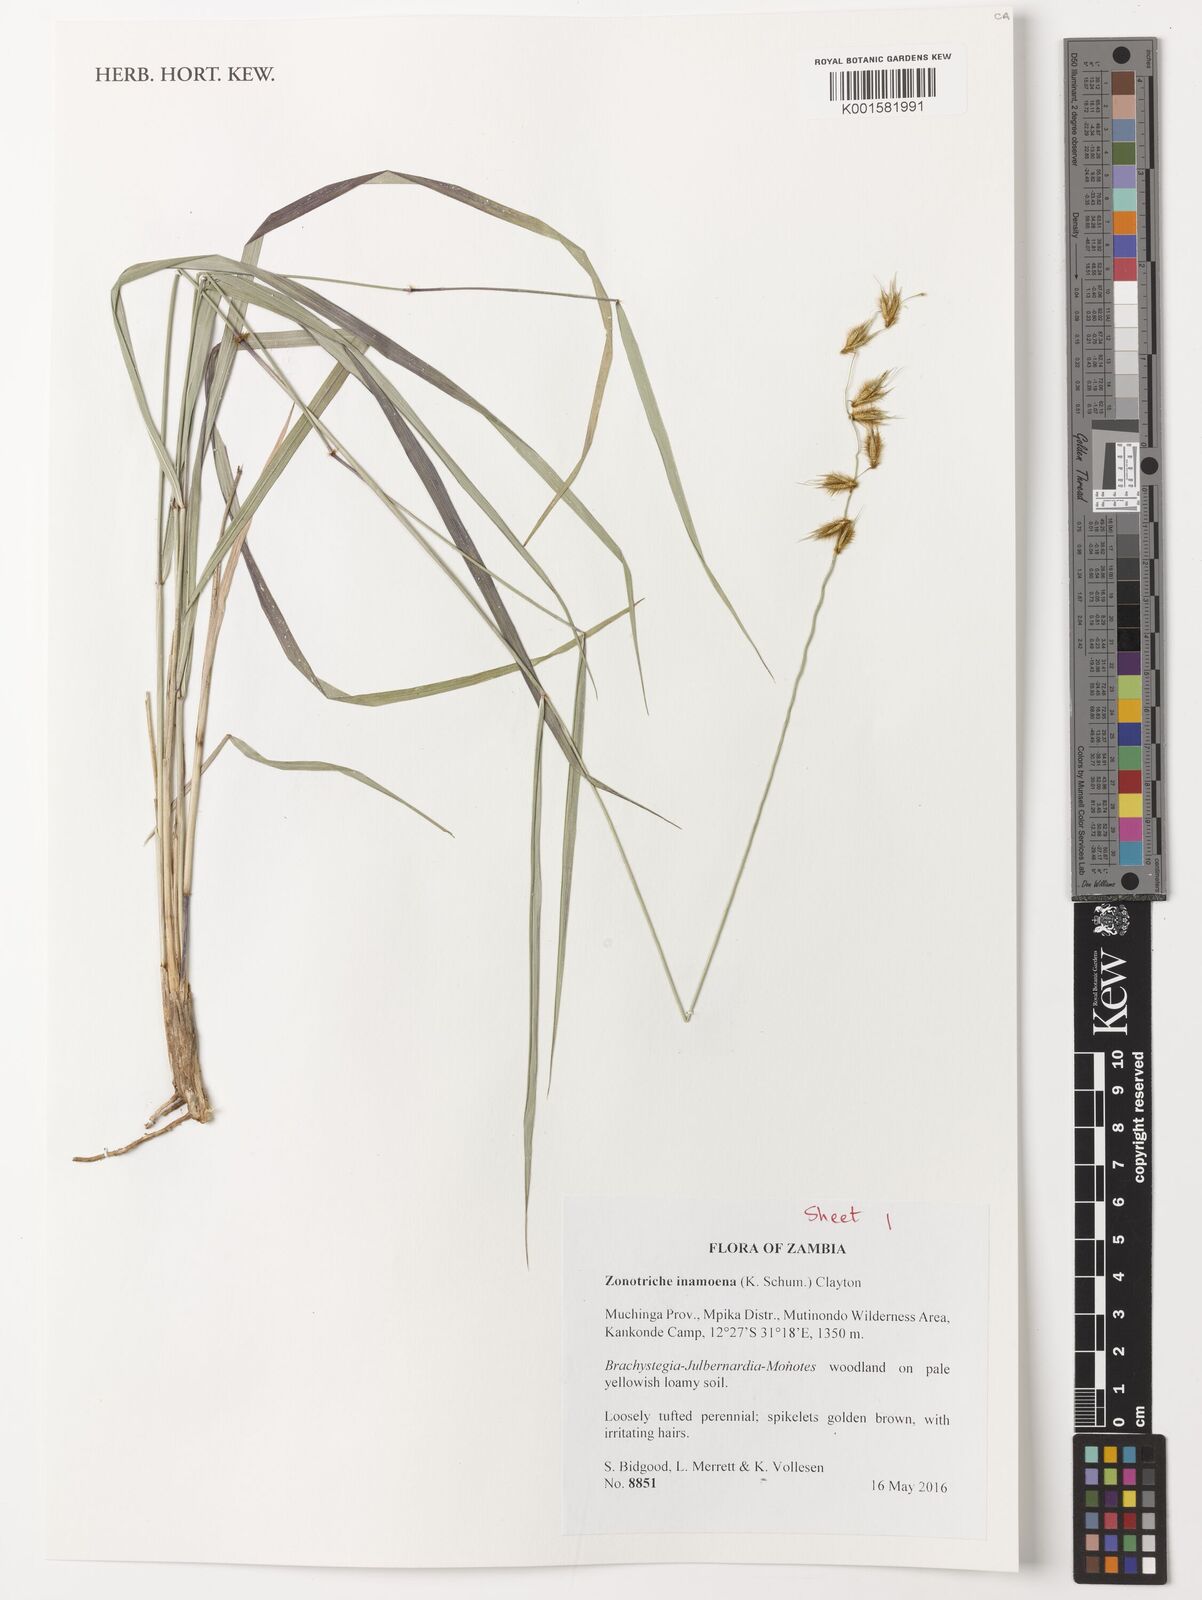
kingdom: Plantae
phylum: Tracheophyta
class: Liliopsida
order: Poales
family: Poaceae
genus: Zonotriche
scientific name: Zonotriche inamoena
